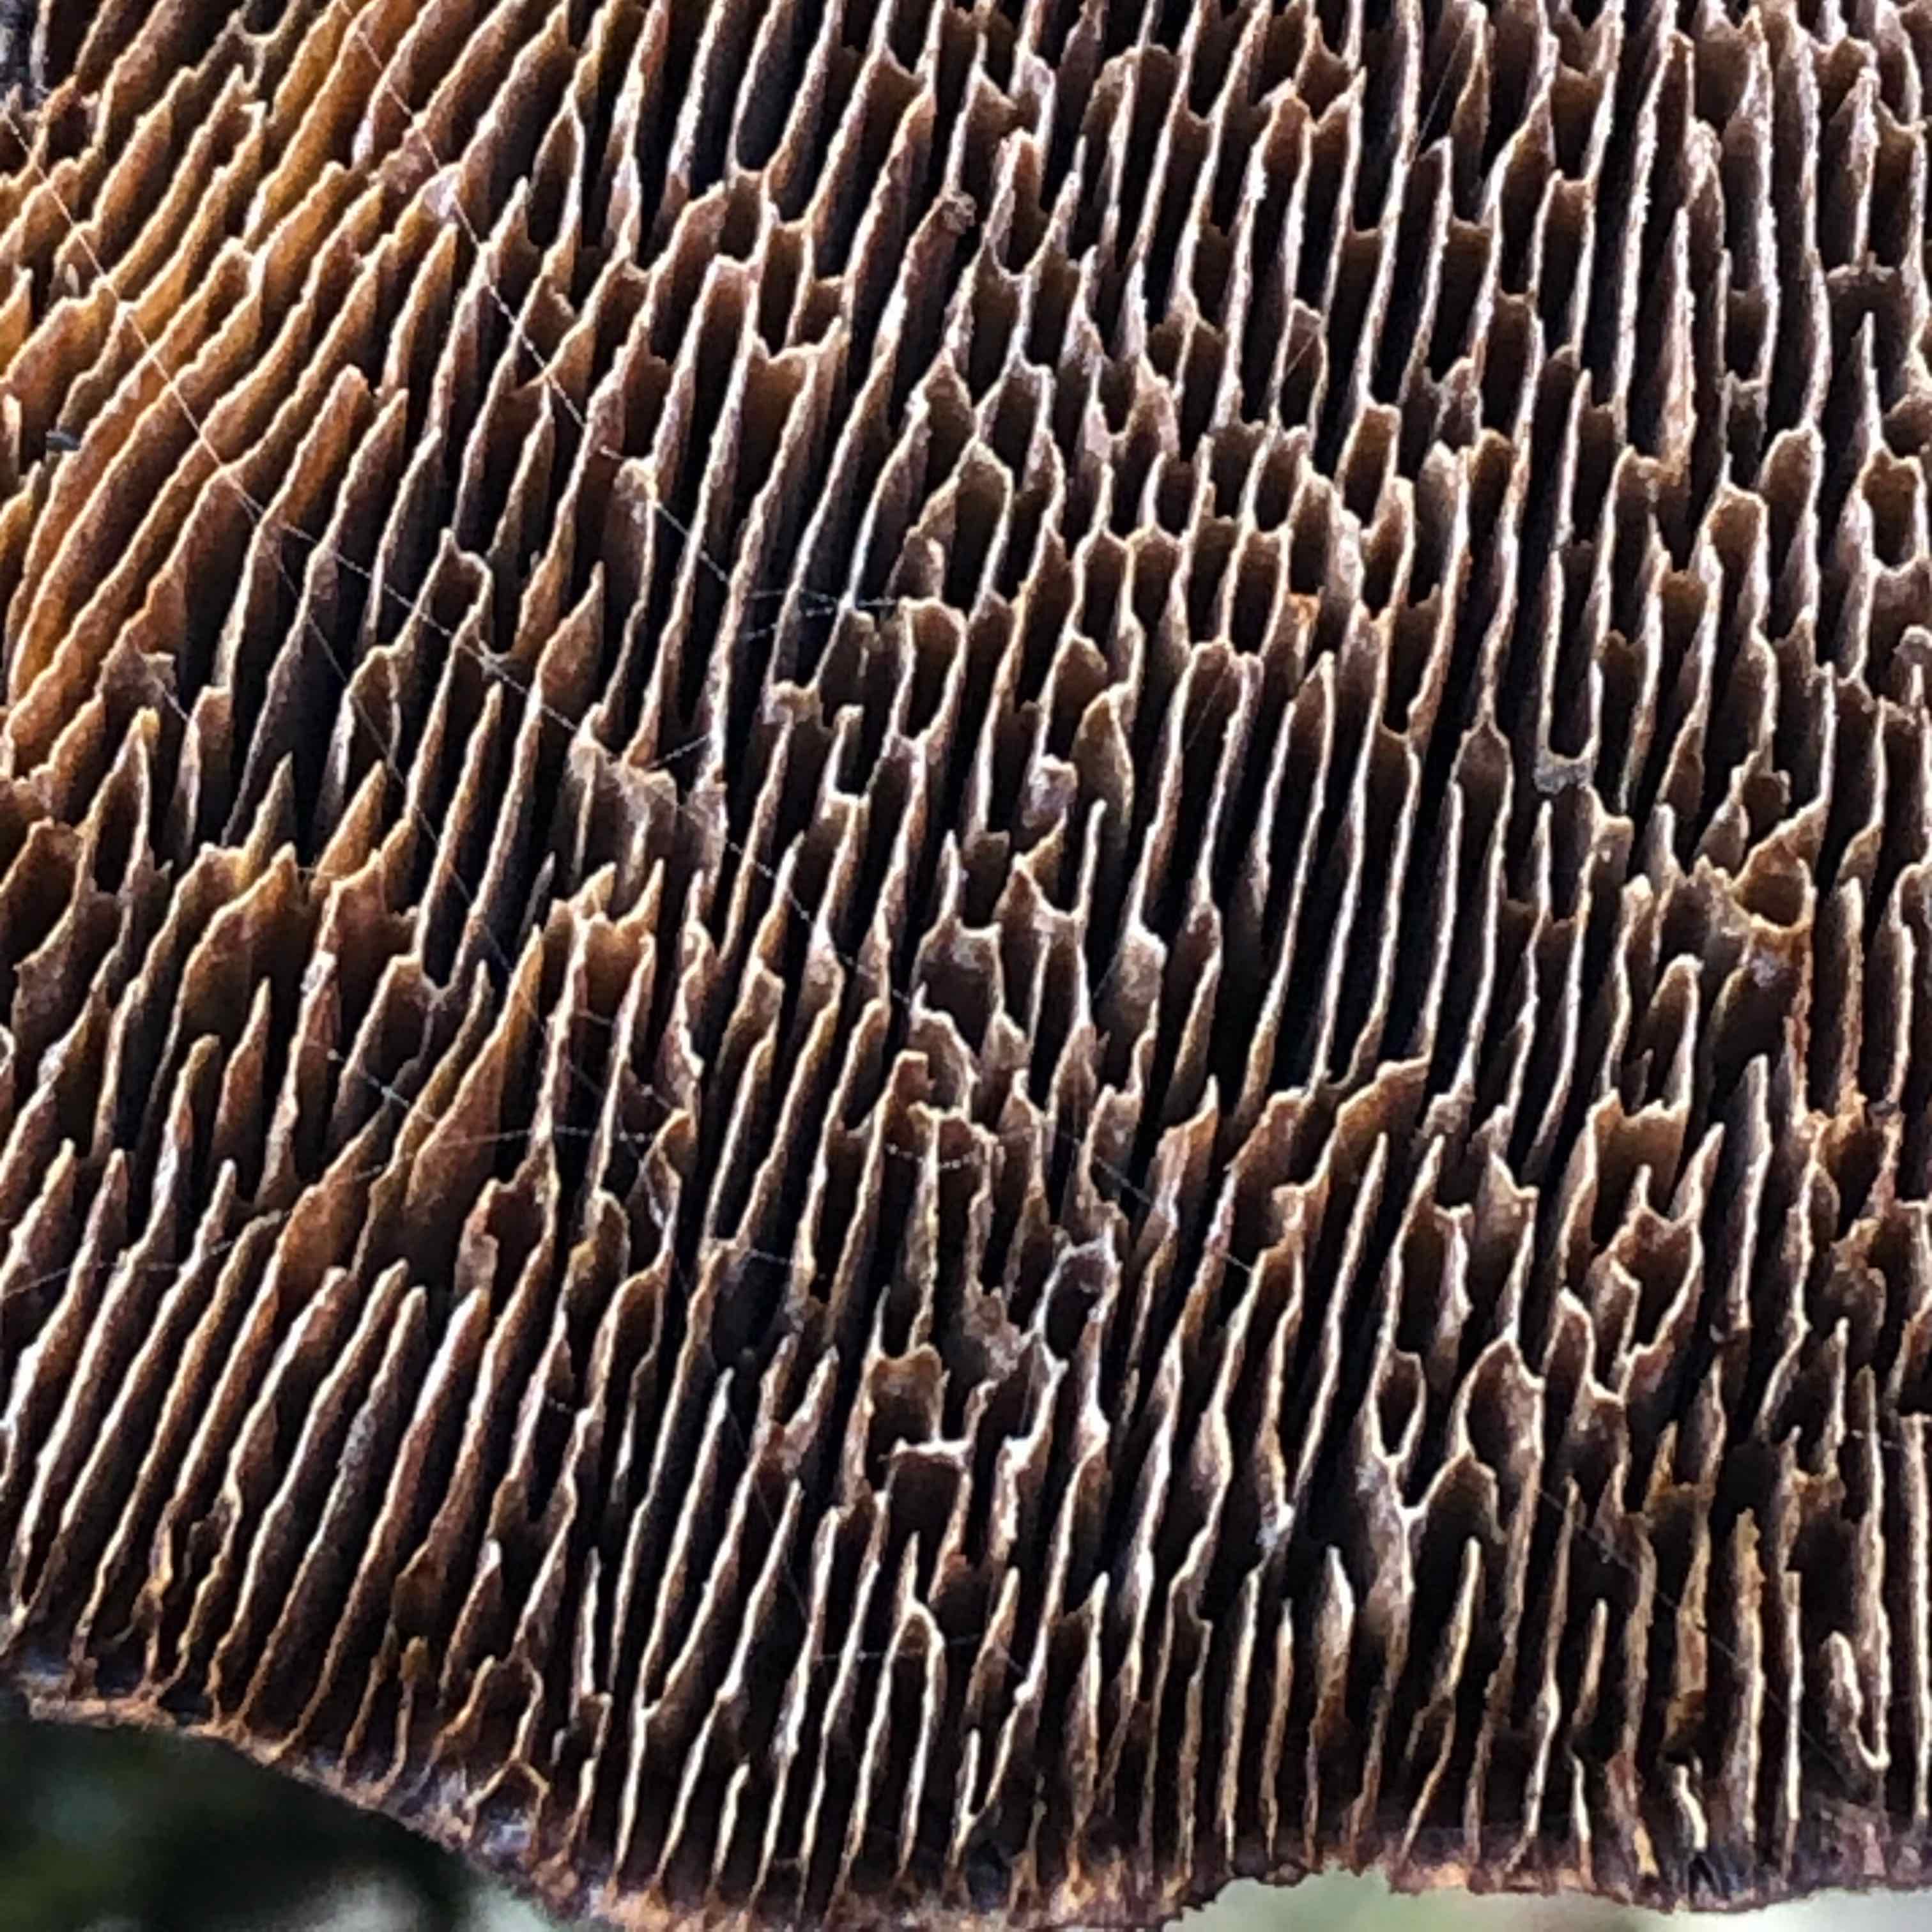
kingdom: Fungi
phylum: Basidiomycota
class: Agaricomycetes
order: Polyporales
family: Polyporaceae
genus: Daedaleopsis
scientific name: Daedaleopsis confragosa
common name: rødmende læderporesvamp
